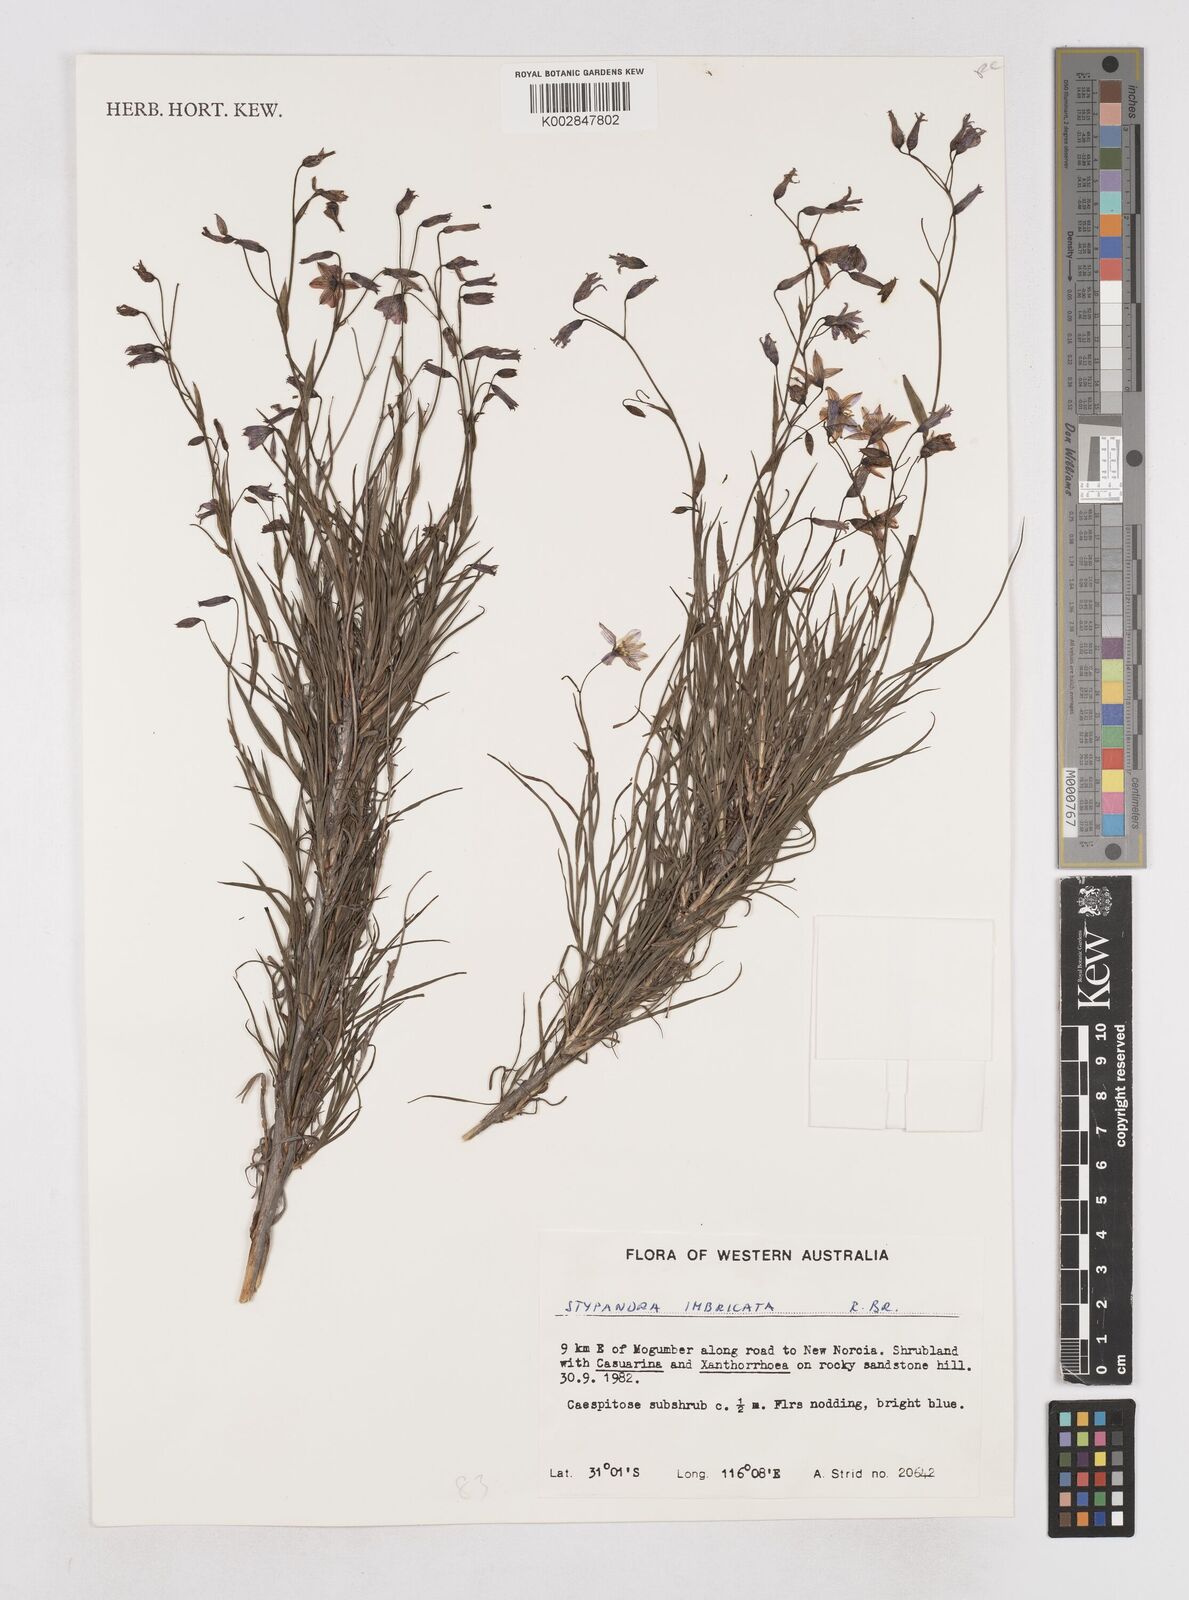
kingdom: Plantae
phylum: Tracheophyta
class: Liliopsida
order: Asparagales
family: Asphodelaceae
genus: Stypandra
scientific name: Stypandra glauca
